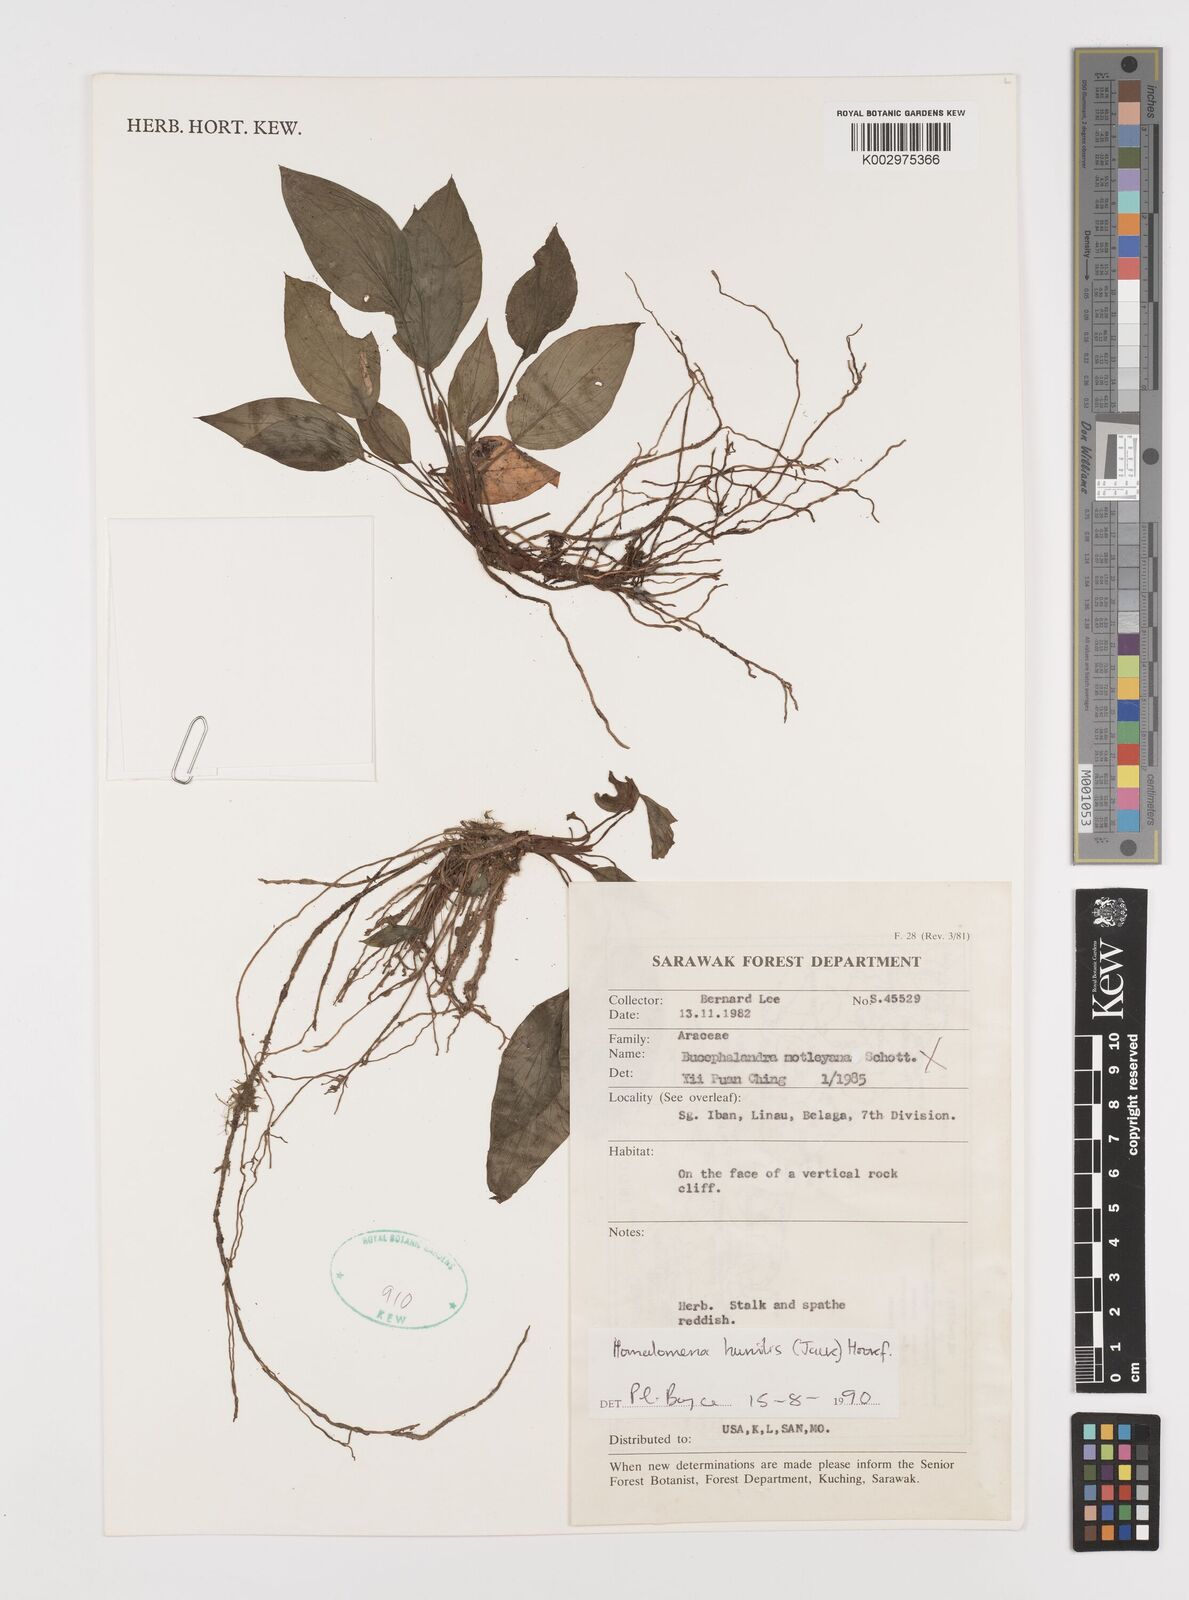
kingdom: Plantae
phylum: Tracheophyta
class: Liliopsida
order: Alismatales
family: Araceae
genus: Homalomena
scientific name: Homalomena humilis
